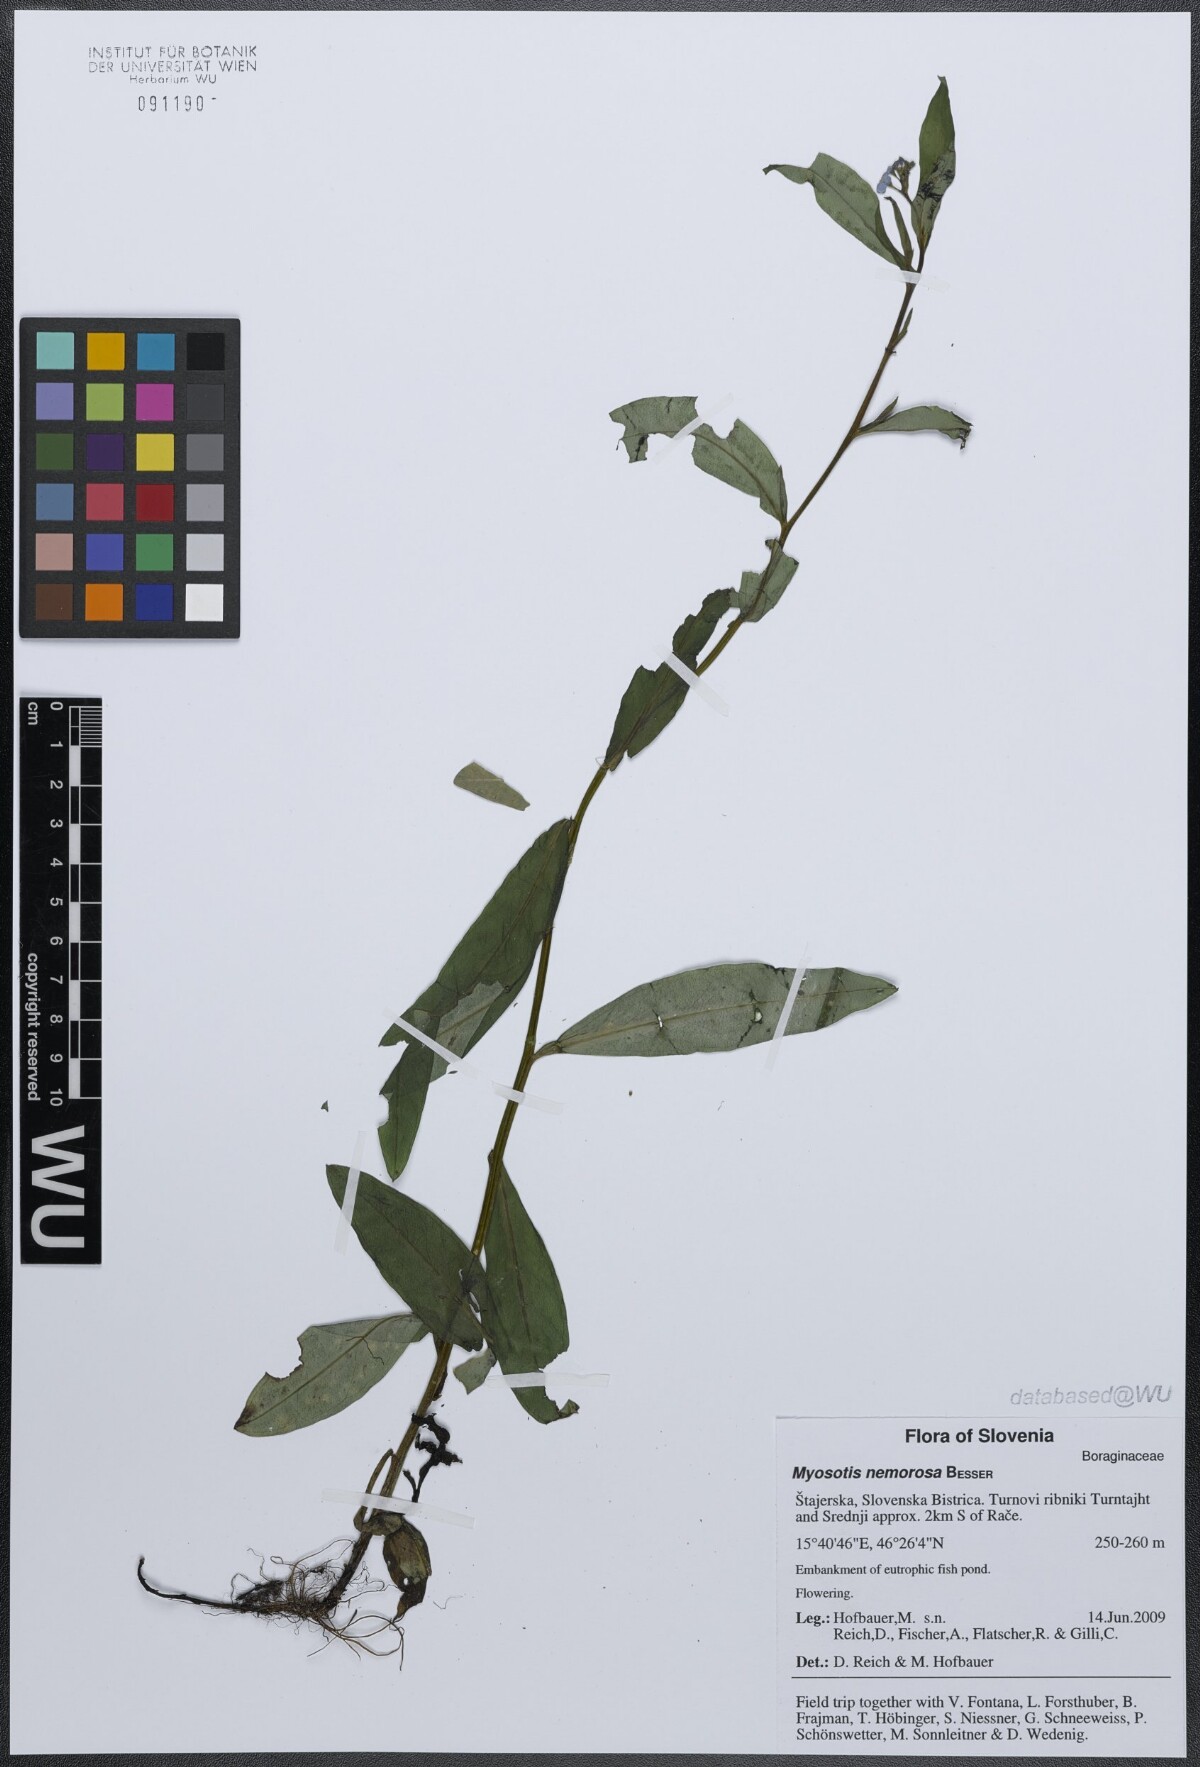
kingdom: Plantae
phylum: Tracheophyta
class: Magnoliopsida
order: Boraginales
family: Boraginaceae
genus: Myosotis
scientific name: Myosotis nemorosa
